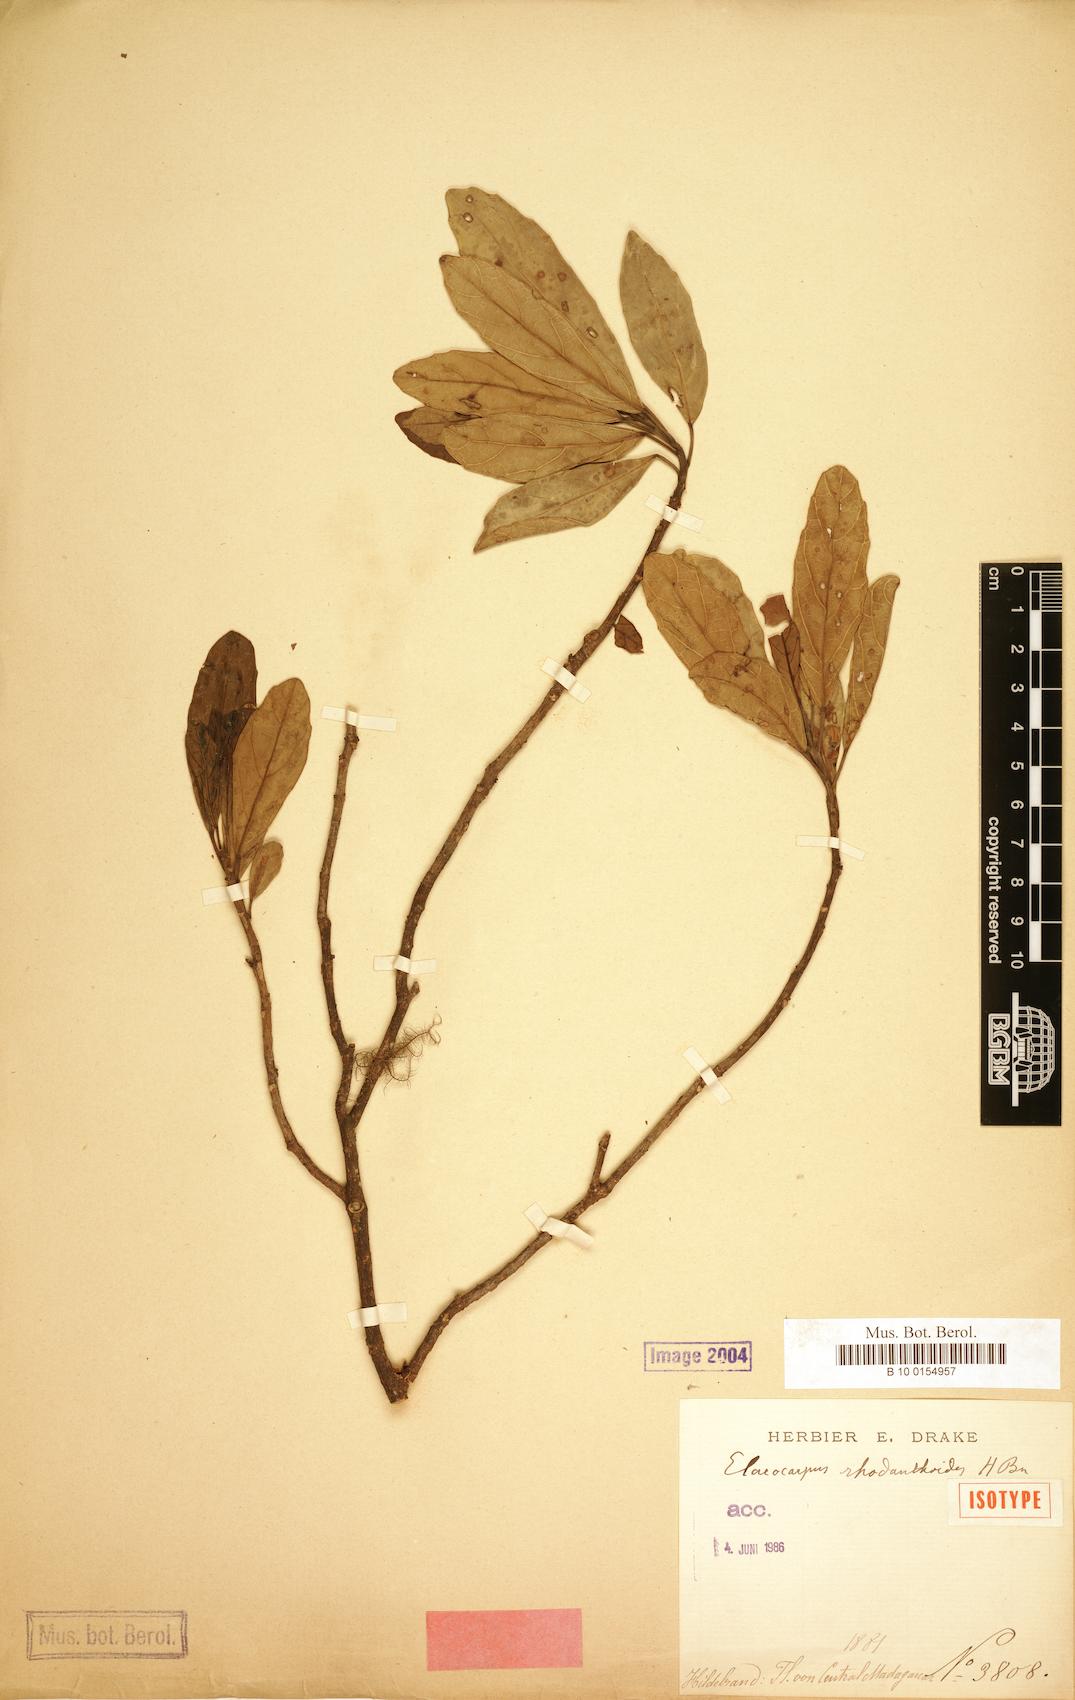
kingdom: Plantae
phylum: Tracheophyta
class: Magnoliopsida
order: Oxalidales
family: Elaeocarpaceae
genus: Sloanea
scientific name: Sloanea rhodantha
